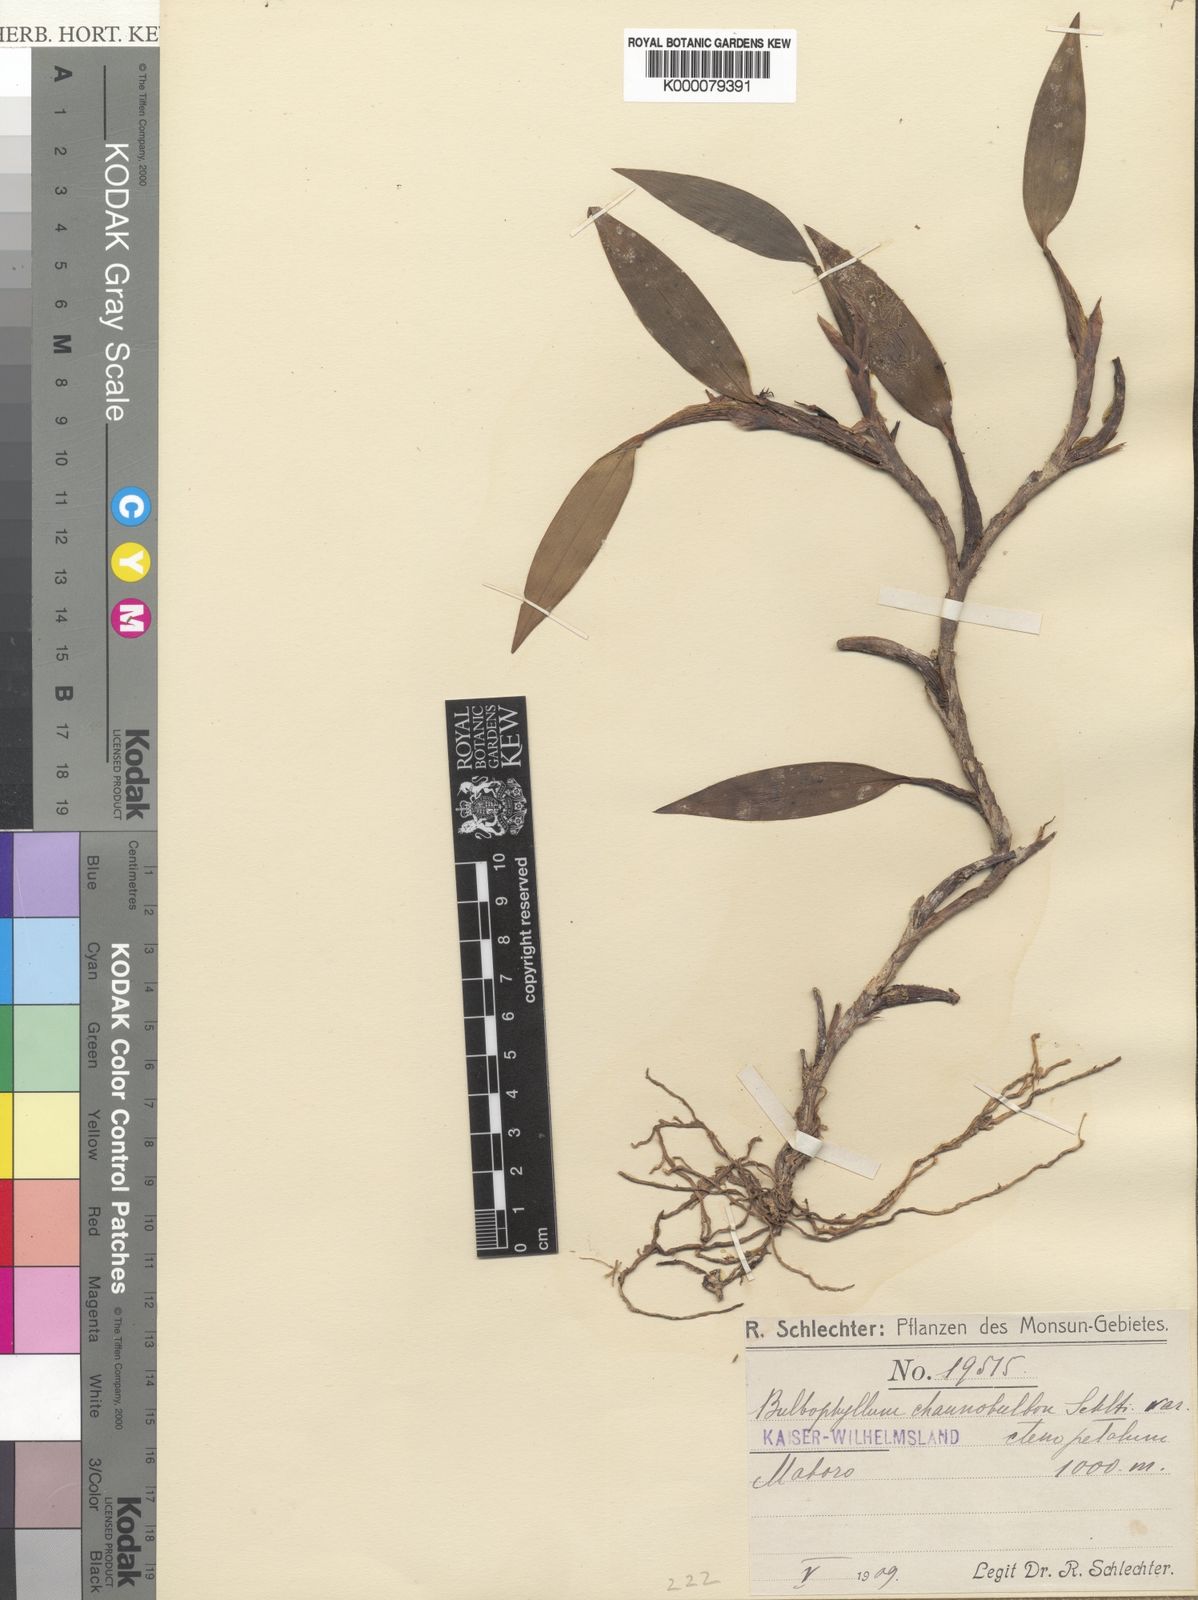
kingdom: Plantae
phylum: Tracheophyta
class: Liliopsida
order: Asparagales
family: Orchidaceae
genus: Bulbophyllum
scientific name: Bulbophyllum chaunobulbon
